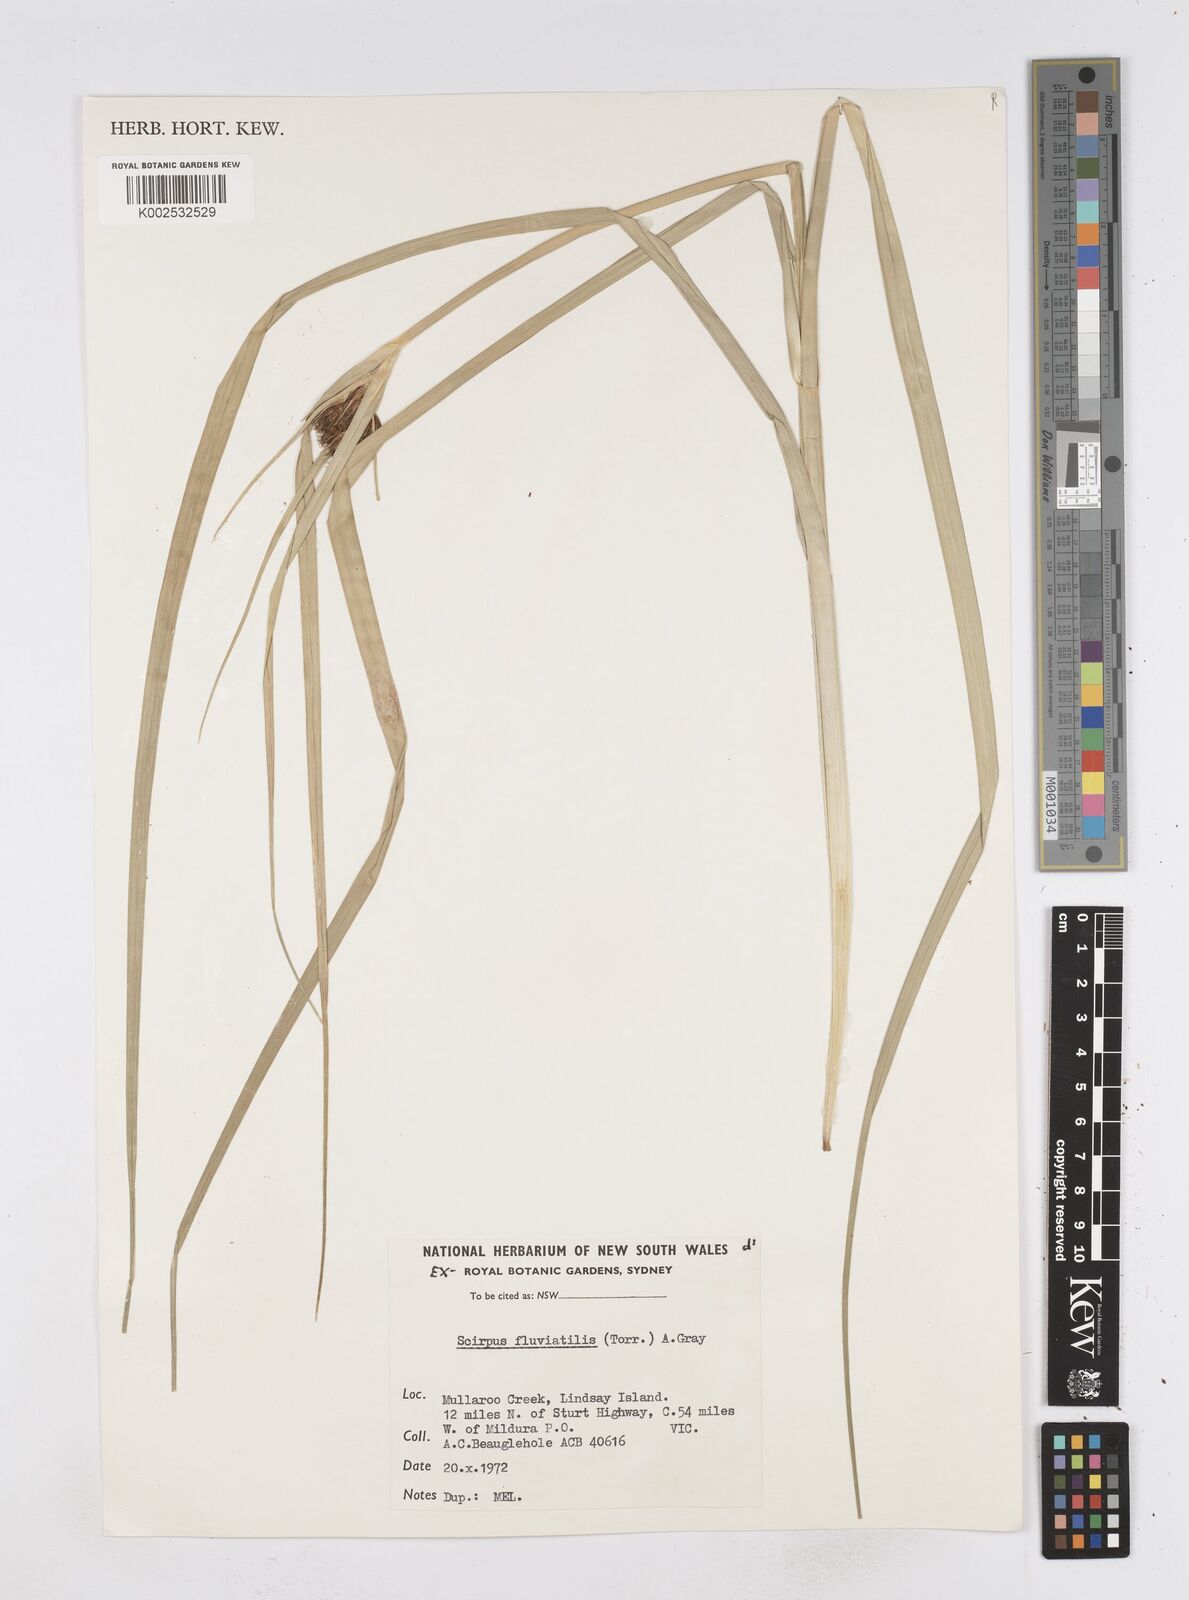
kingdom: Plantae
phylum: Tracheophyta
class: Liliopsida
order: Poales
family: Cyperaceae
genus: Bolboschoenus
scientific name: Bolboschoenus maritimus
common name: Sea club-rush
